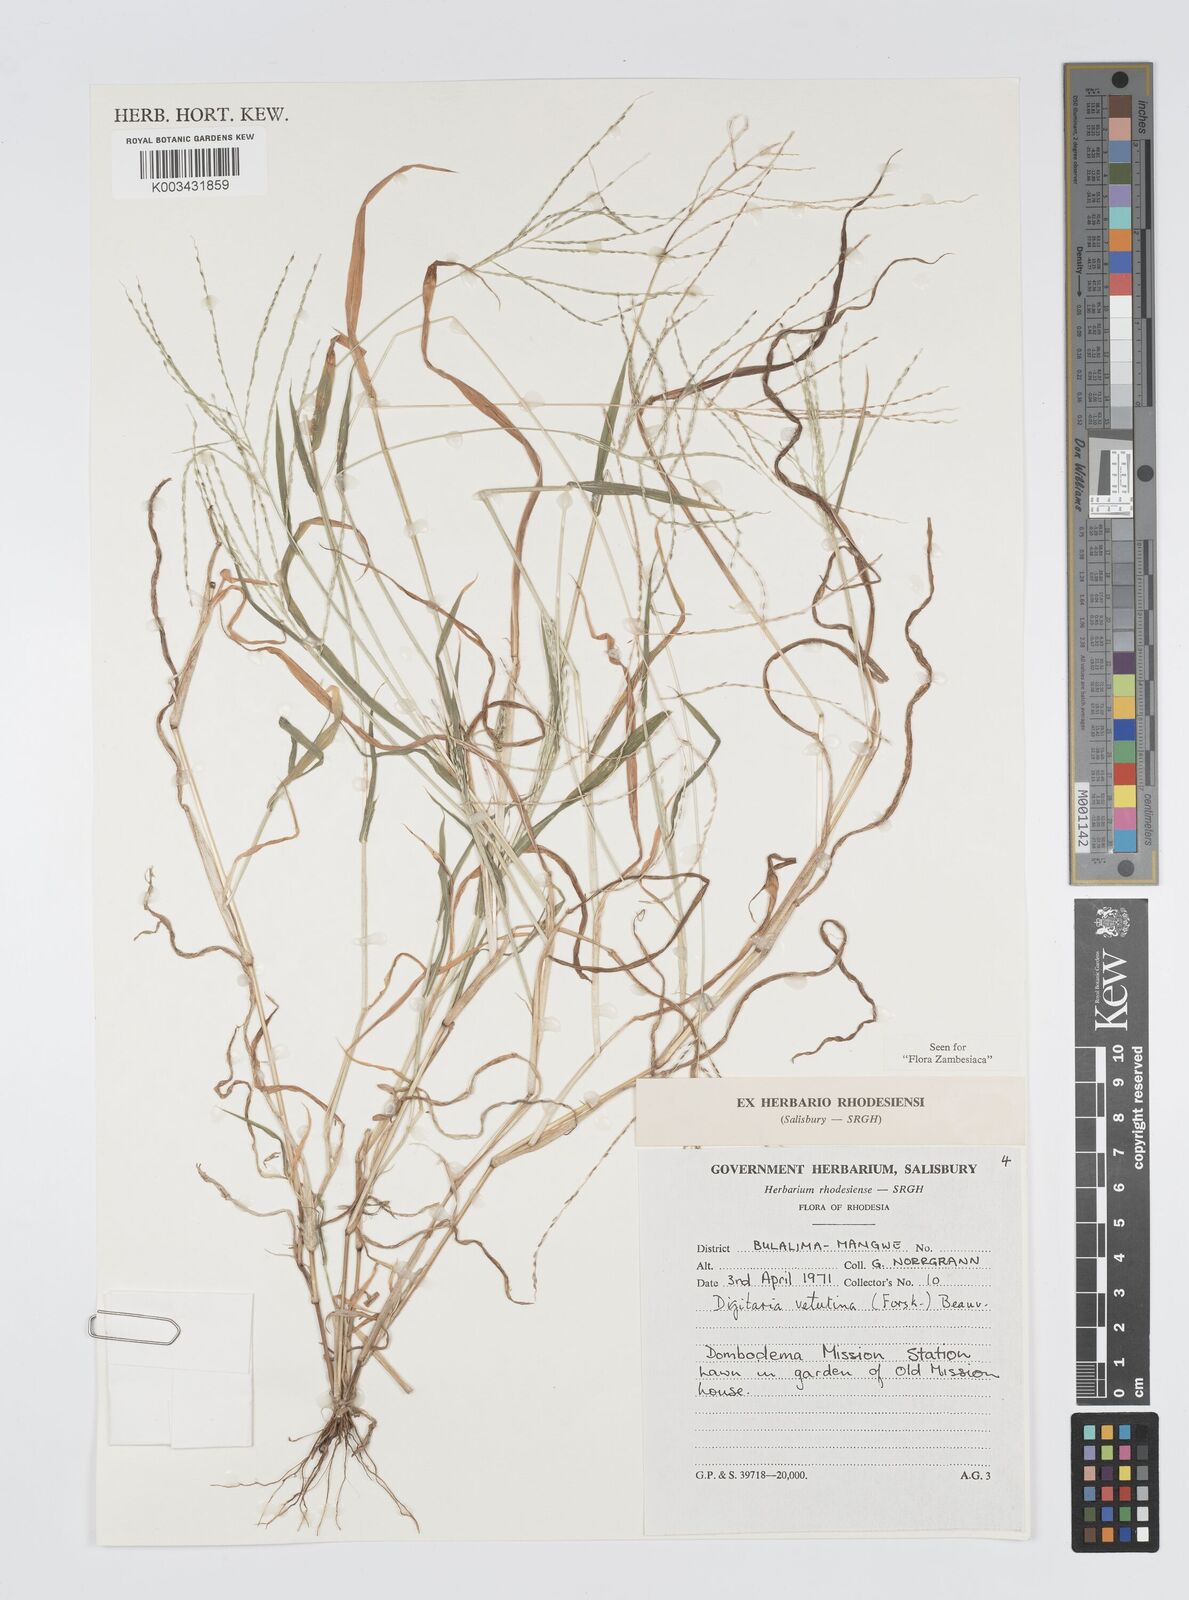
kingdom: Plantae
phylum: Tracheophyta
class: Liliopsida
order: Poales
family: Poaceae
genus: Digitaria
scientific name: Digitaria velutina
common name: Long-plume finger grass
